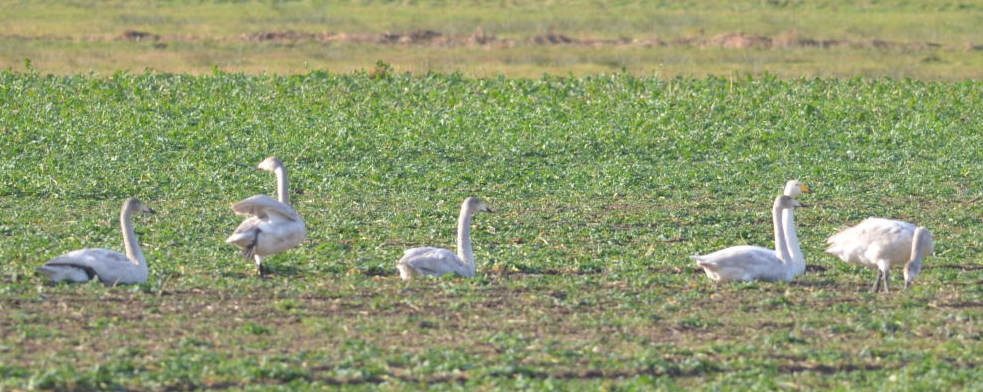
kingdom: Animalia
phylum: Chordata
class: Aves
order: Anseriformes
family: Anatidae
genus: Cygnus
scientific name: Cygnus cygnus
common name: Whooper swan
